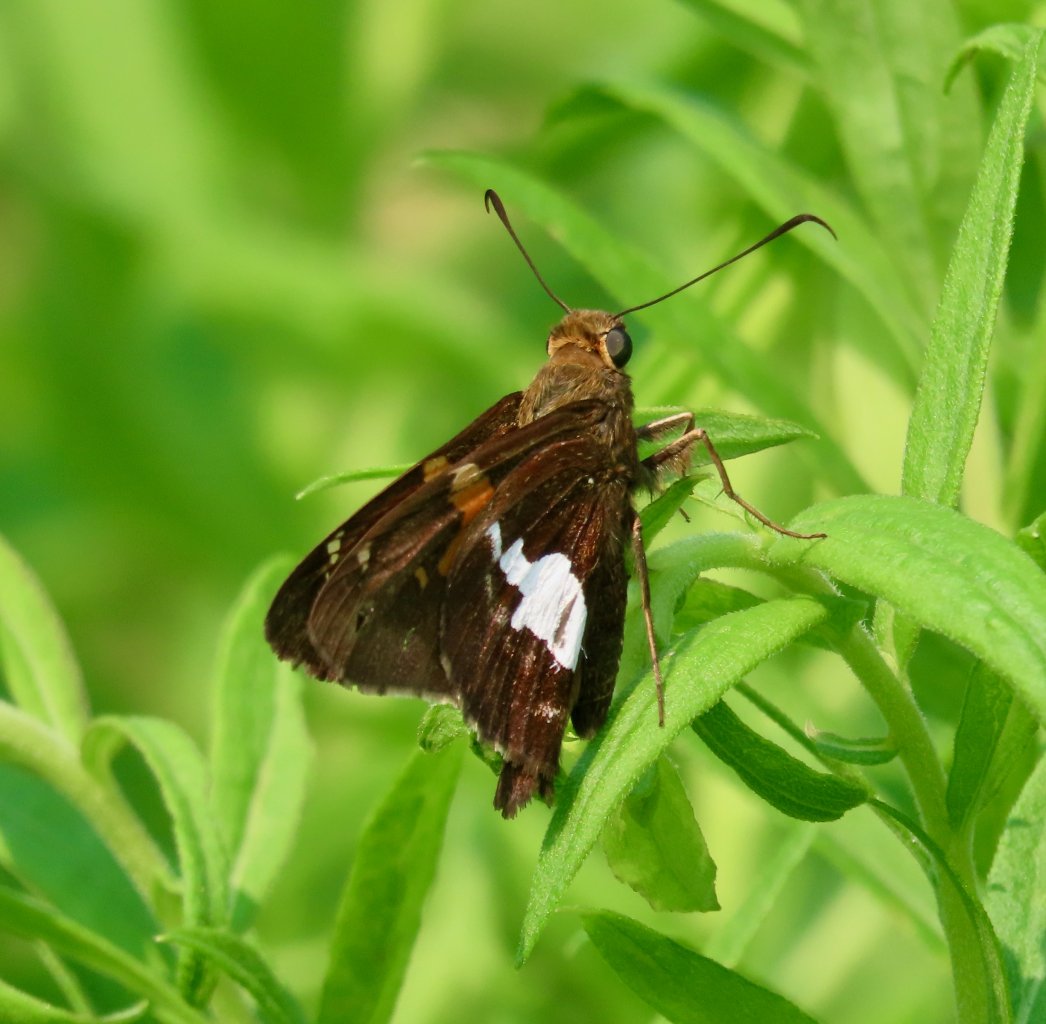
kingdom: Animalia
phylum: Arthropoda
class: Insecta
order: Lepidoptera
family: Hesperiidae
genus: Epargyreus
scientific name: Epargyreus clarus
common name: Silver-spotted Skipper
